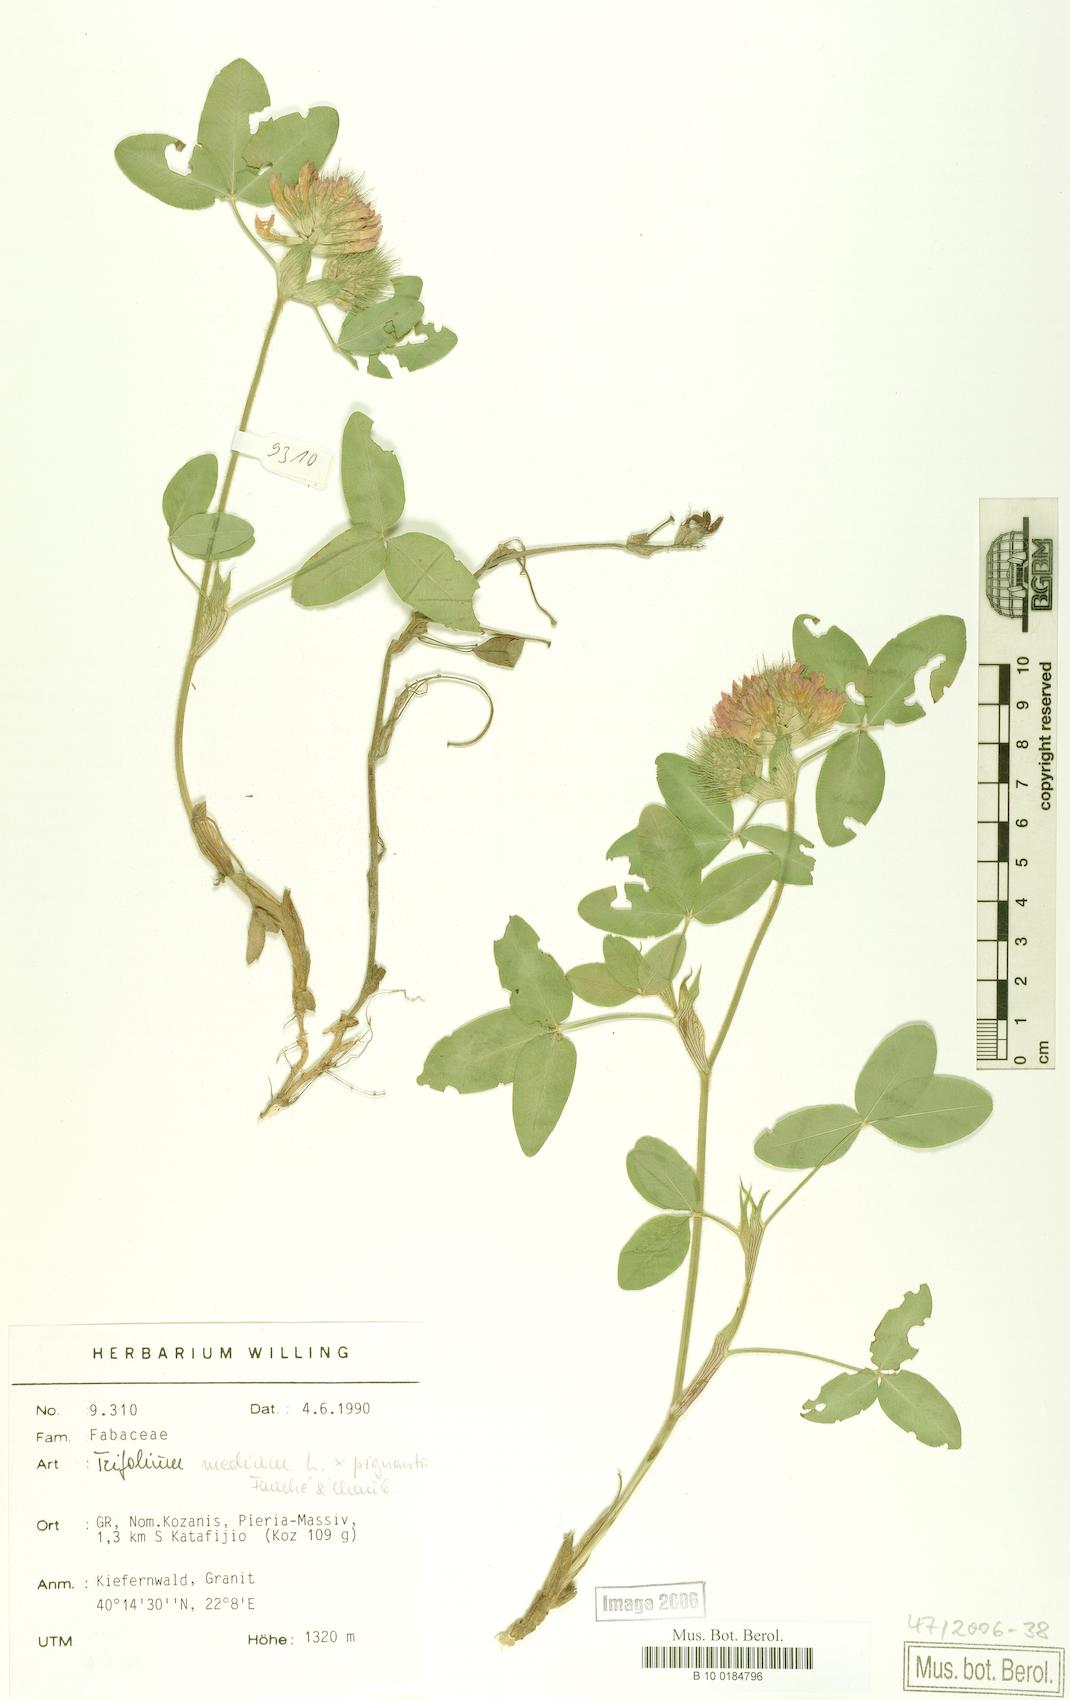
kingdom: Plantae
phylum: Tracheophyta
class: Magnoliopsida
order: Fabales
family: Fabaceae
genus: Trifolium
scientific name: Trifolium medium
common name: Zigzag clover
